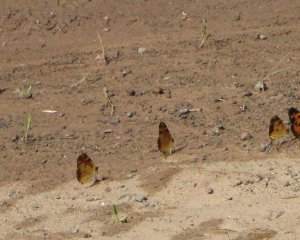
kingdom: Animalia
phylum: Arthropoda
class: Insecta
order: Lepidoptera
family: Nymphalidae
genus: Phyciodes
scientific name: Phyciodes tharos
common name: Northern Crescent
